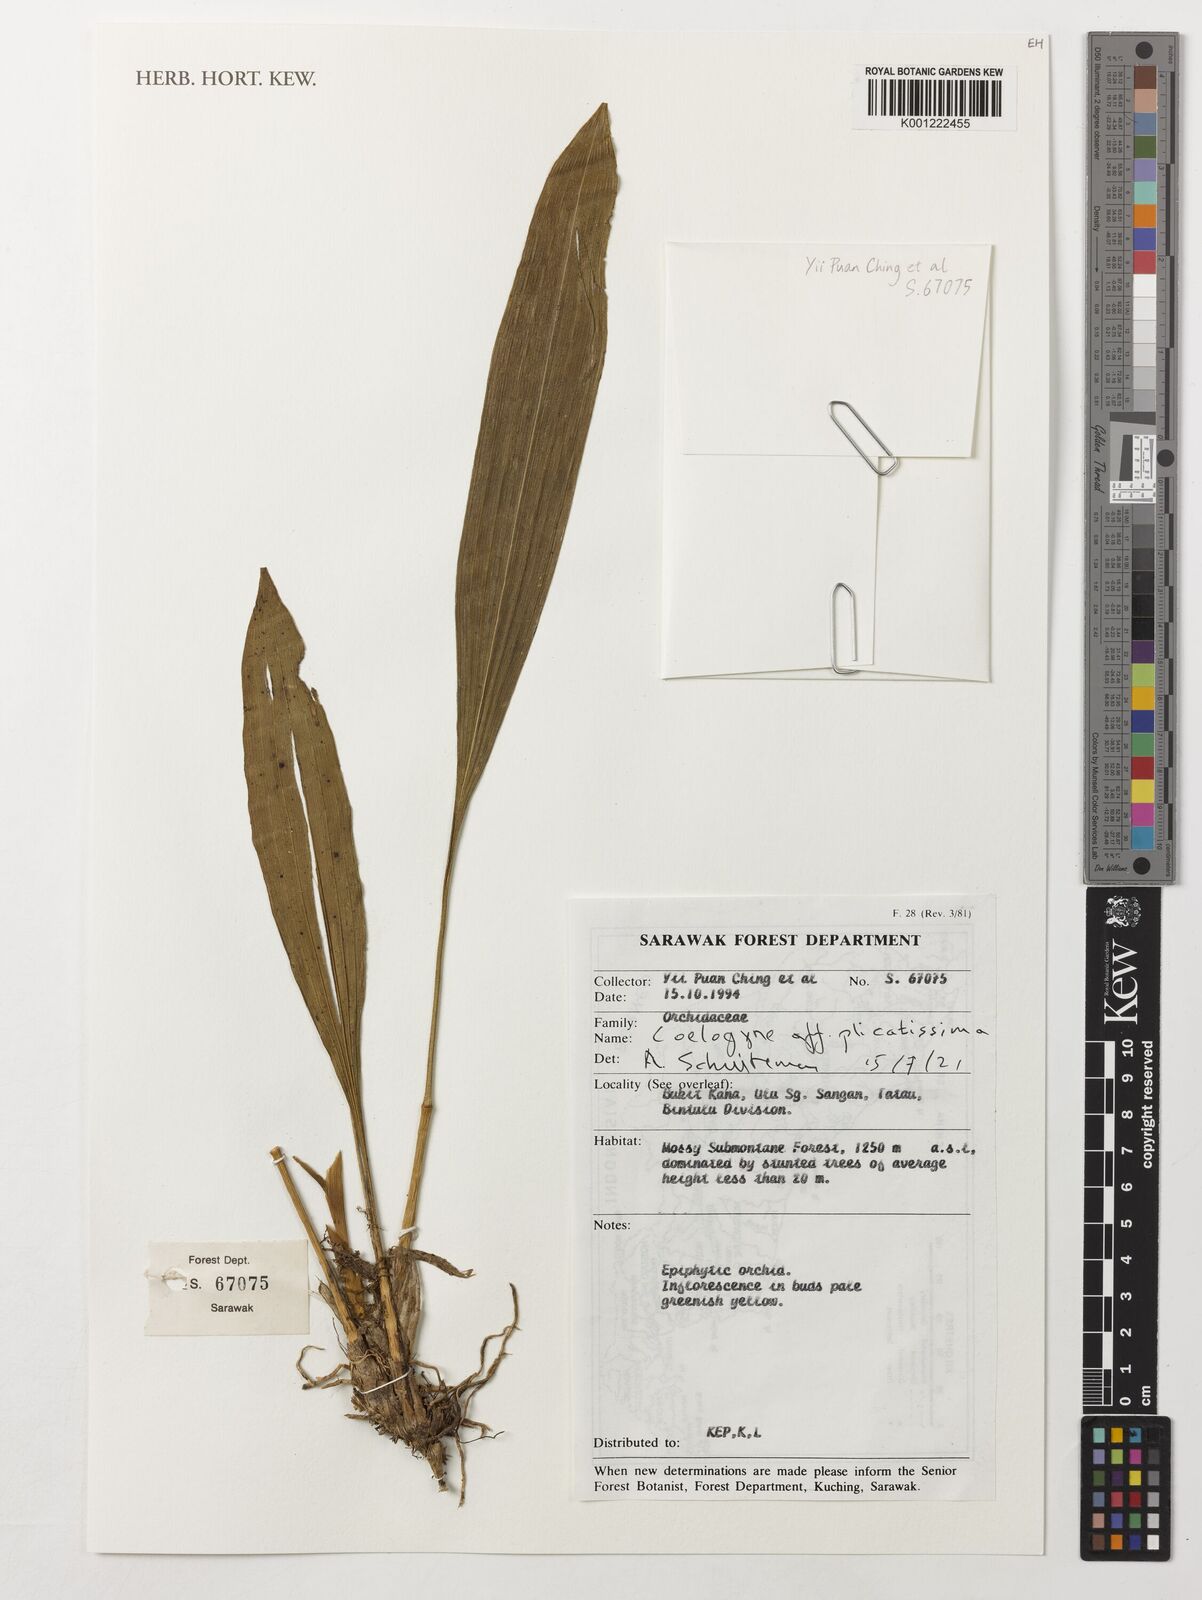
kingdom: Plantae
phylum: Tracheophyta
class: Liliopsida
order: Asparagales
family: Orchidaceae
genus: Coelogyne
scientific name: Coelogyne plicatissima
